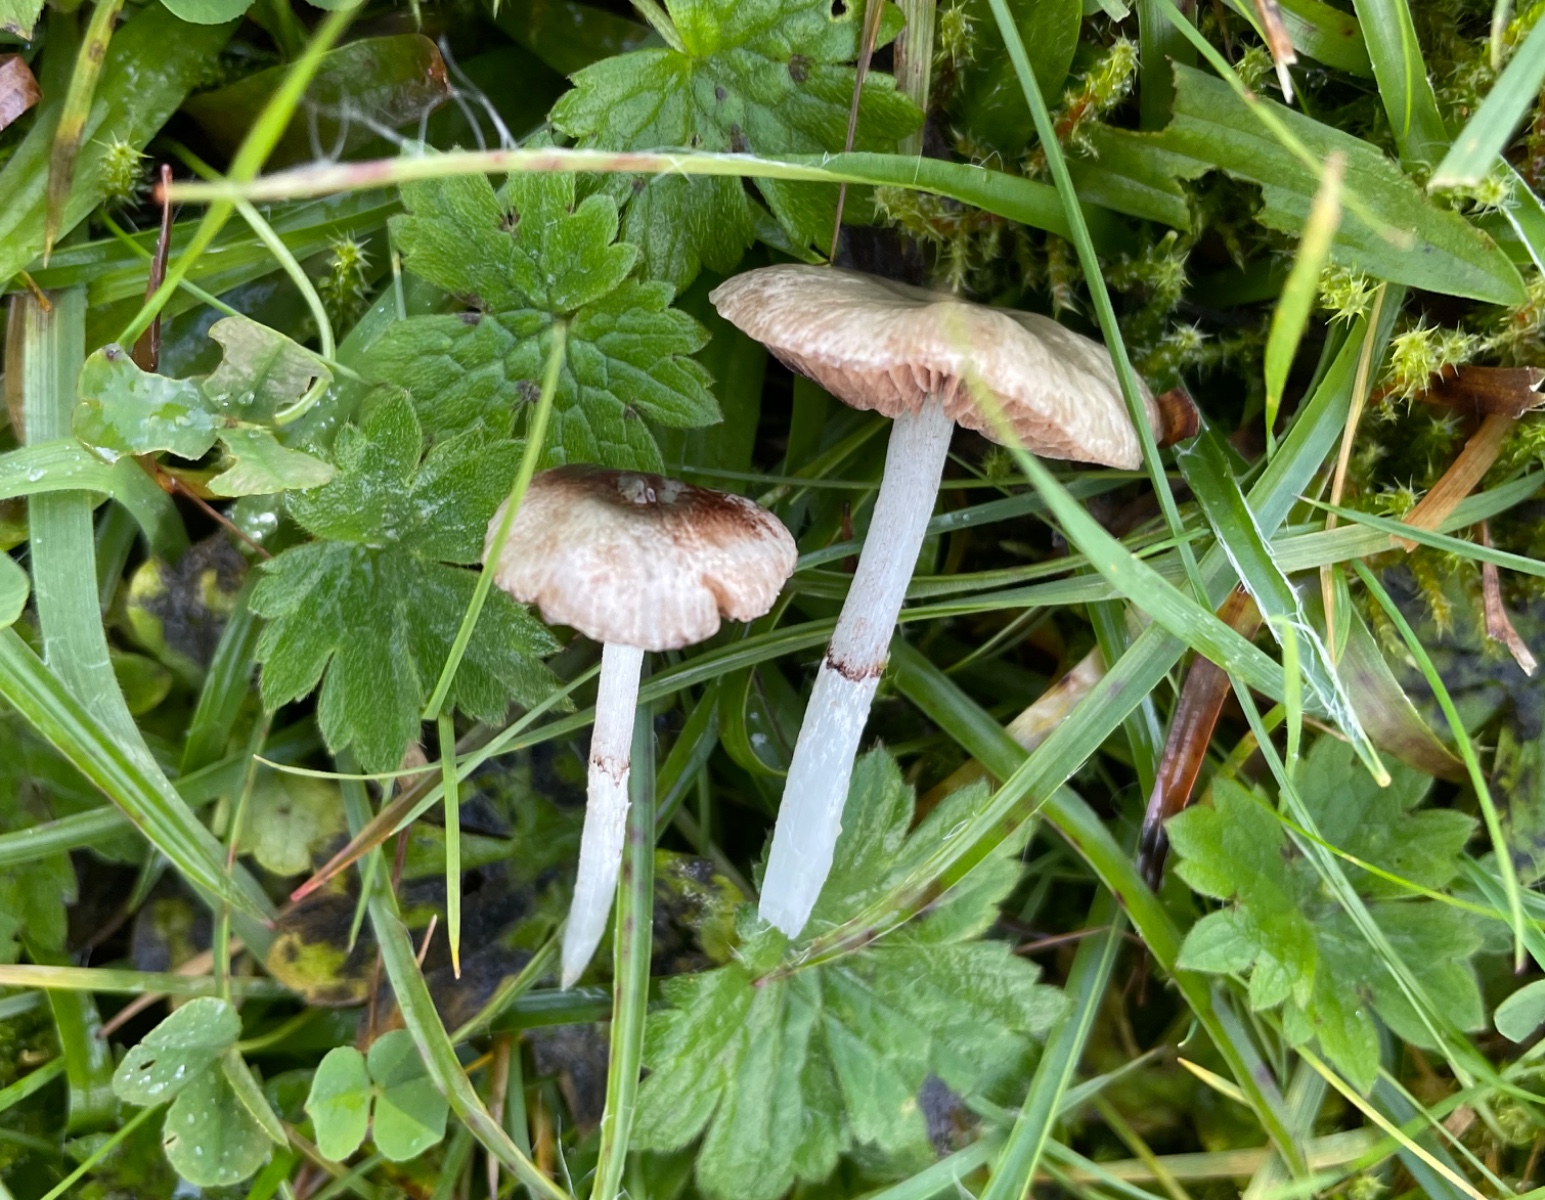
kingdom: Fungi
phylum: Basidiomycota
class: Agaricomycetes
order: Agaricales
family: Strophariaceae
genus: Stropharia
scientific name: Stropharia pseudocyanea
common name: blegblå bredblad
